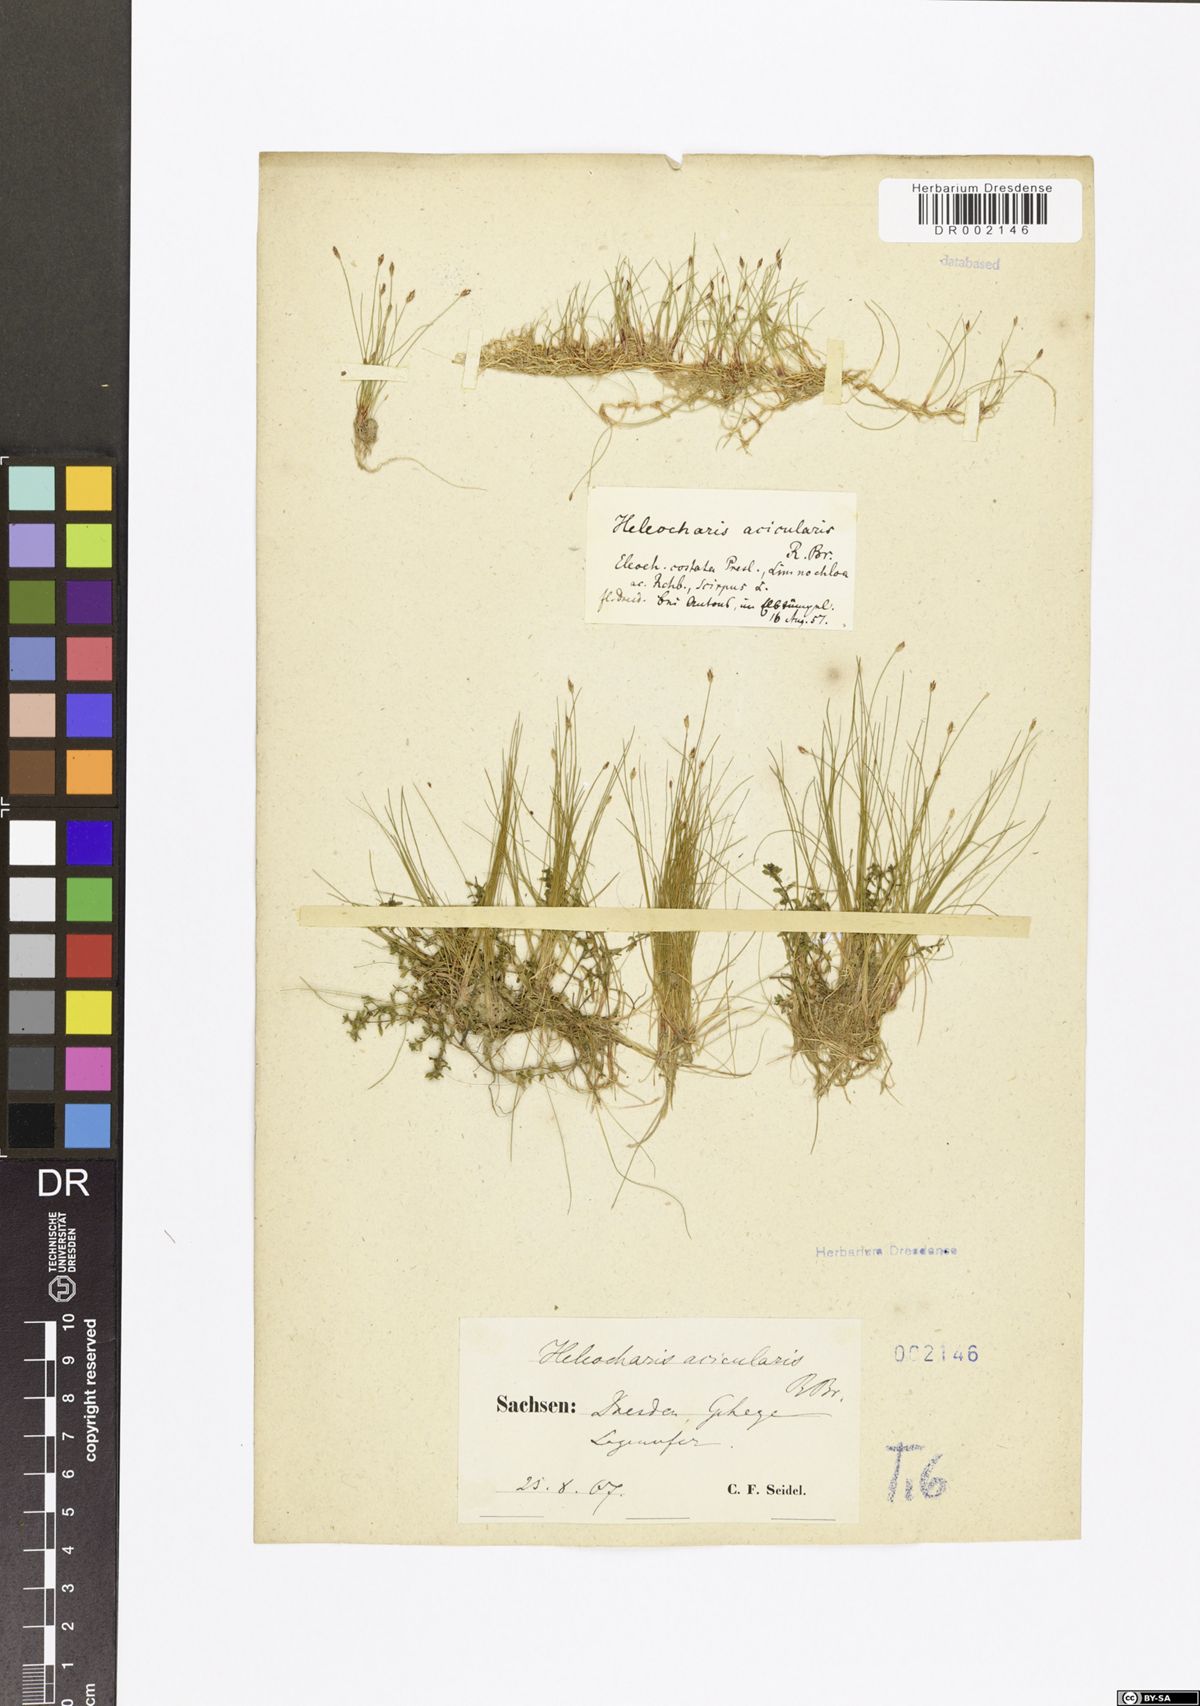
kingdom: Plantae
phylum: Tracheophyta
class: Liliopsida
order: Poales
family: Cyperaceae
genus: Eleocharis
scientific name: Eleocharis acicularis
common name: Needle spike-rush
